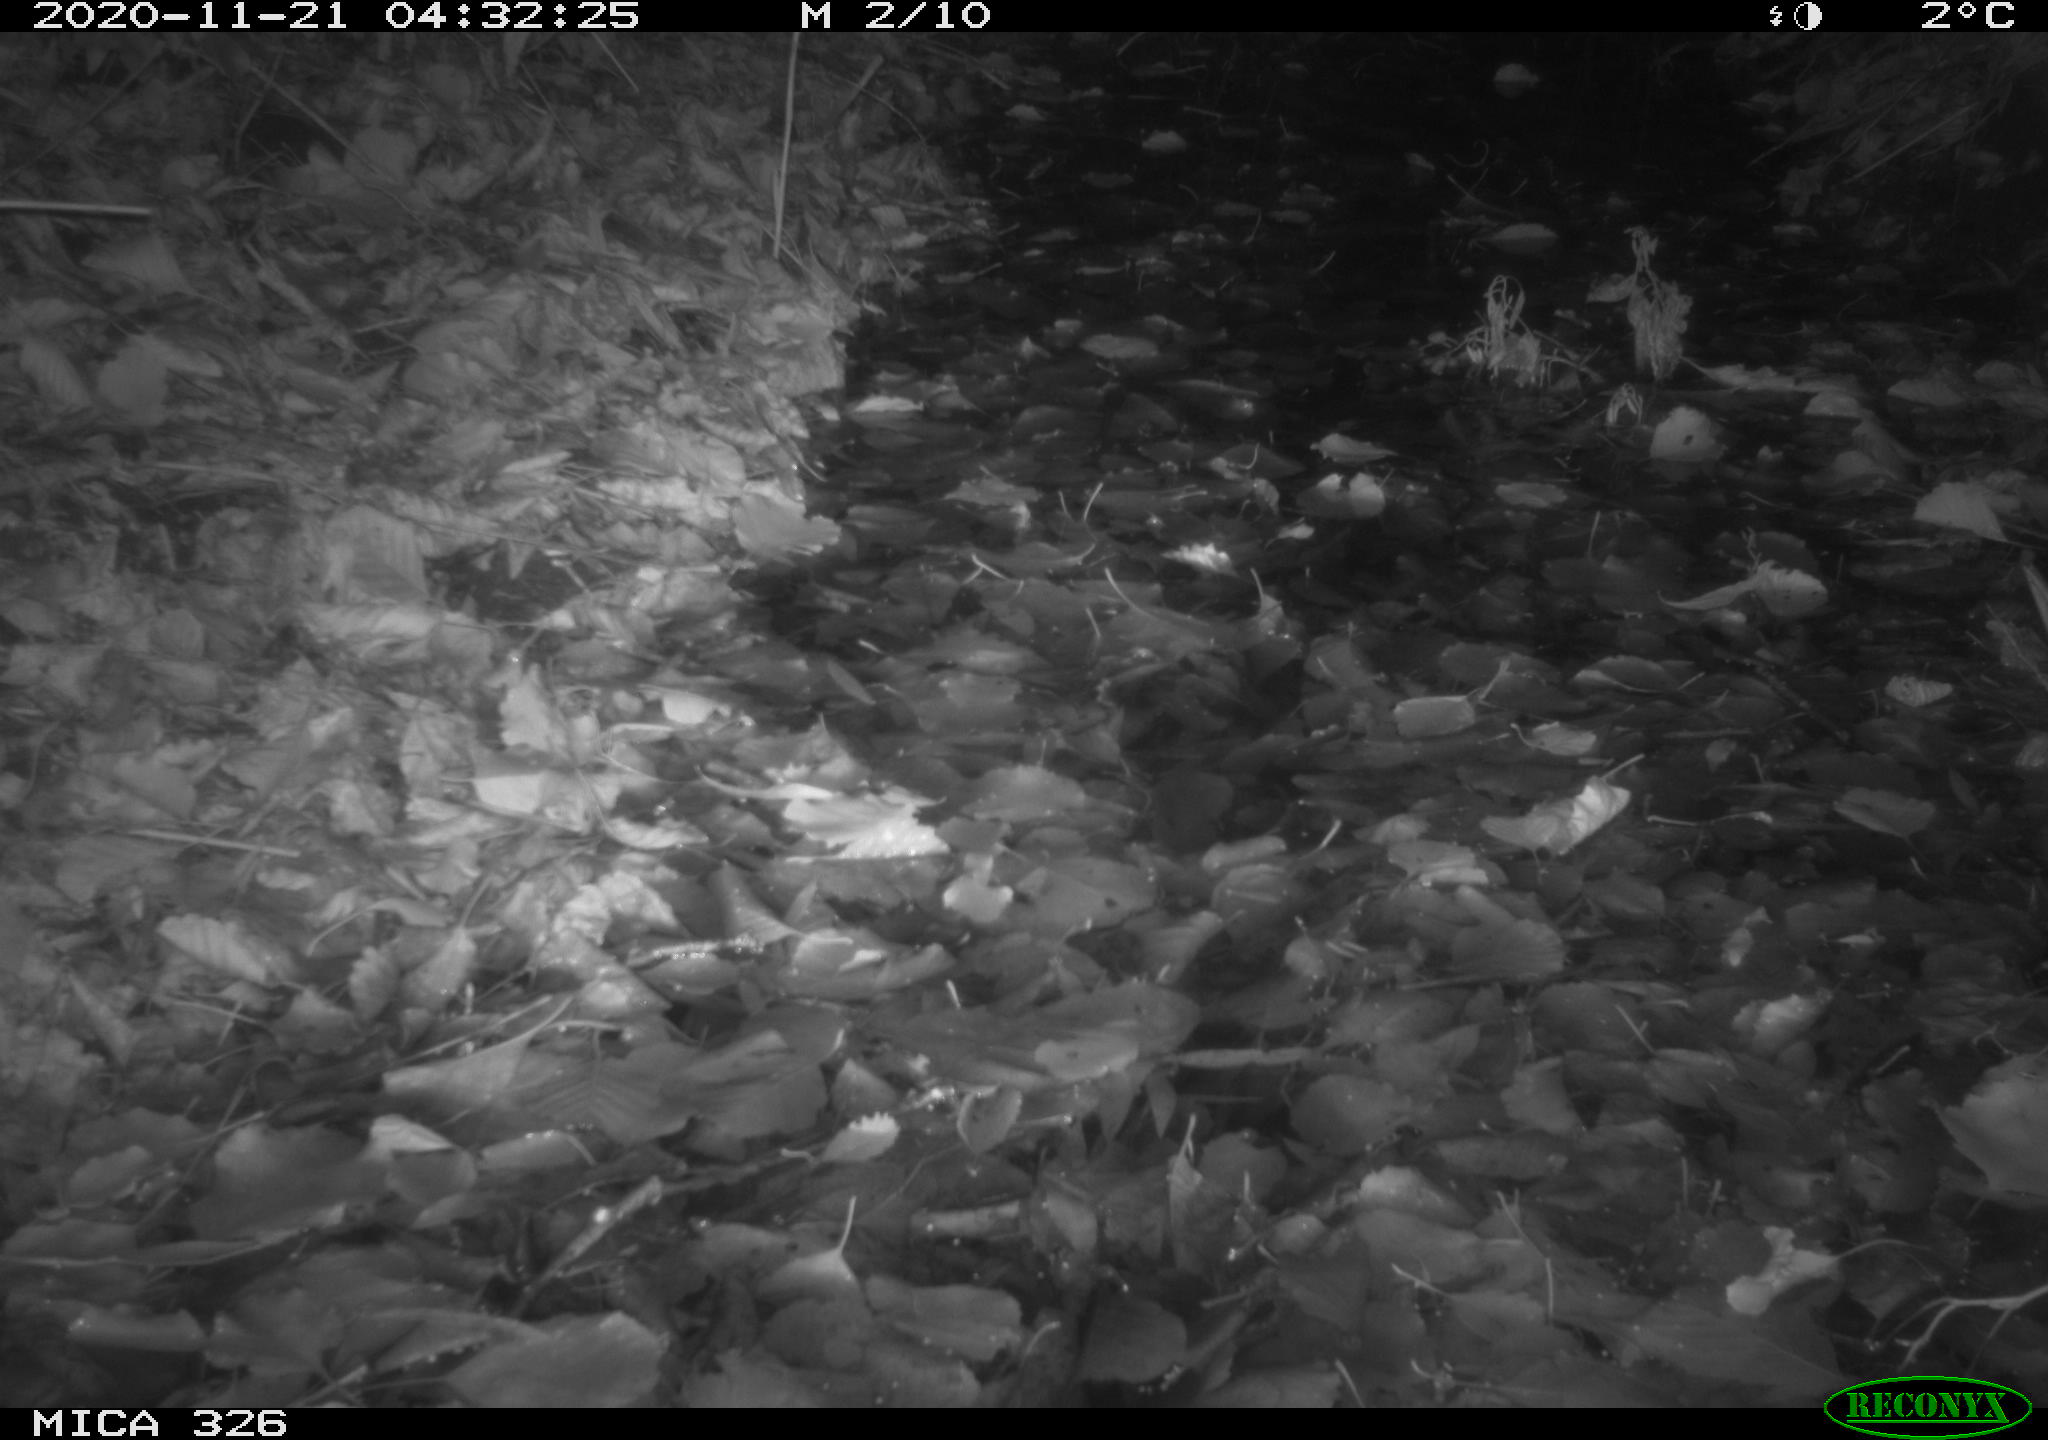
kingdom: Animalia
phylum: Chordata
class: Mammalia
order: Rodentia
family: Muridae
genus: Rattus
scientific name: Rattus norvegicus
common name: Brown rat
